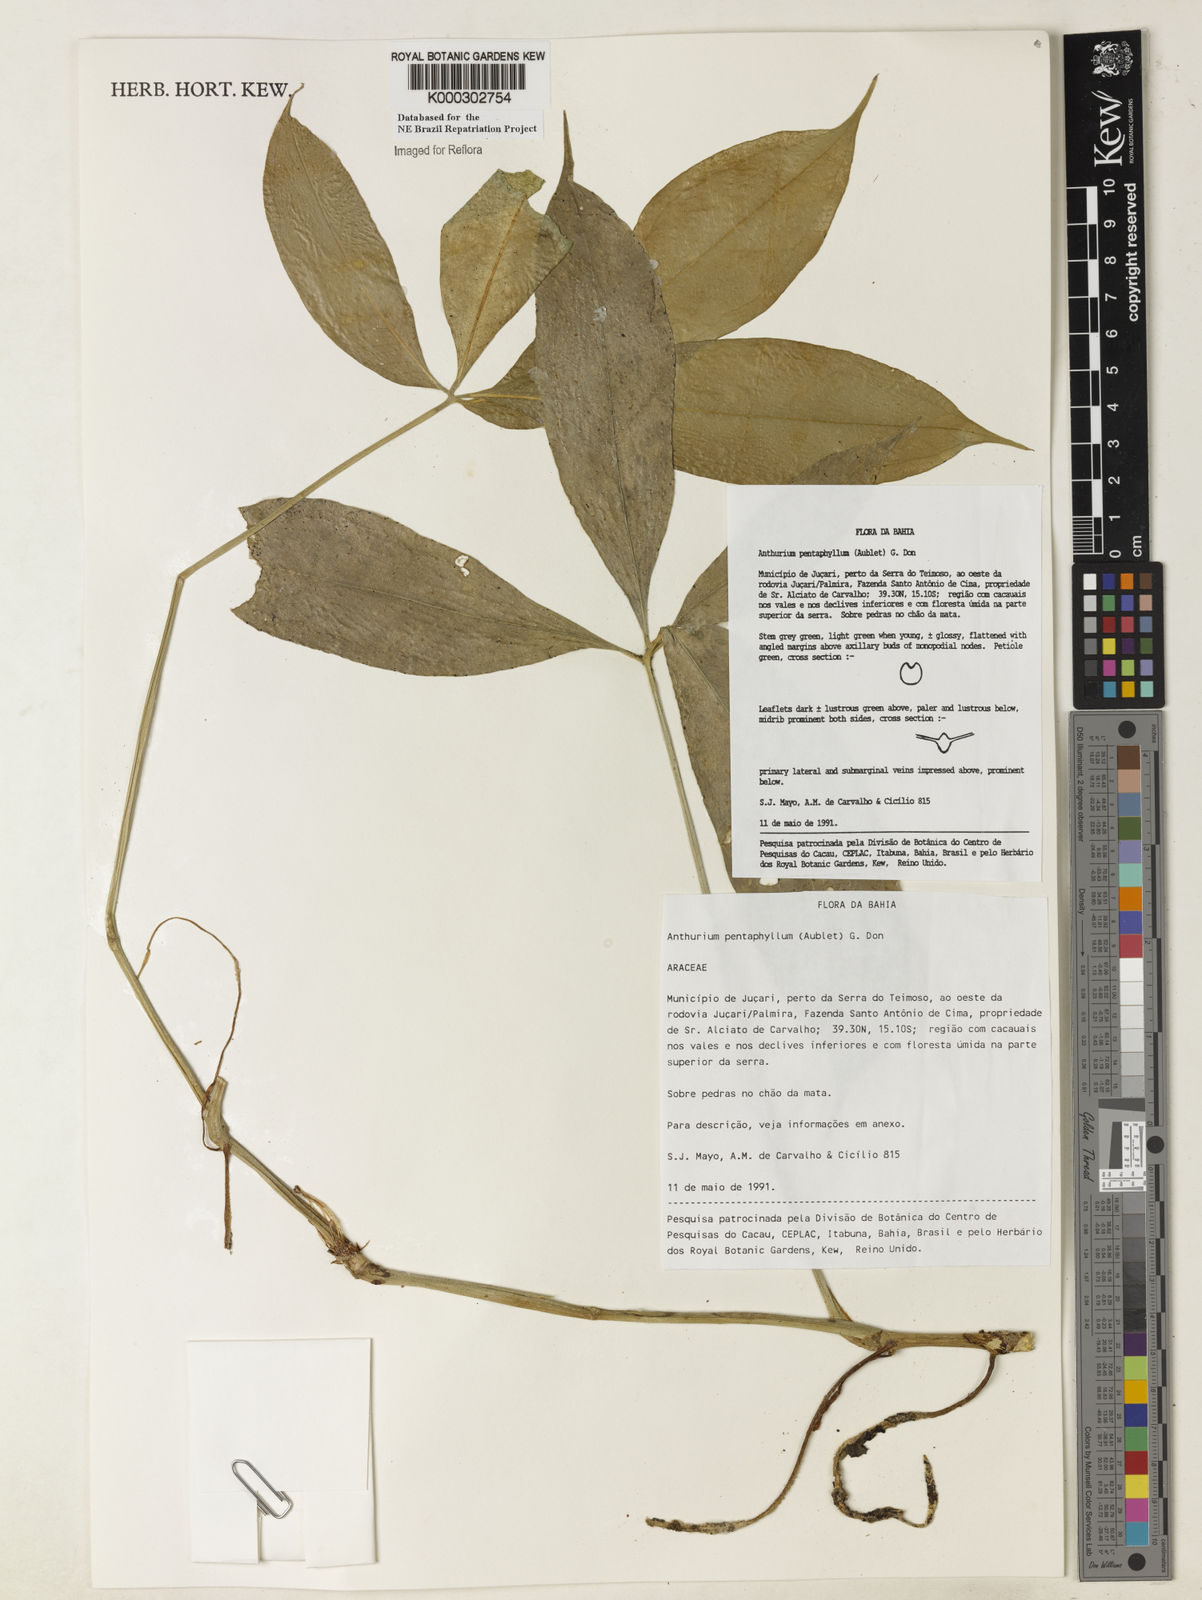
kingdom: Plantae
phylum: Tracheophyta
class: Liliopsida
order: Alismatales
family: Araceae
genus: Anthurium
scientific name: Anthurium pentaphyllum
